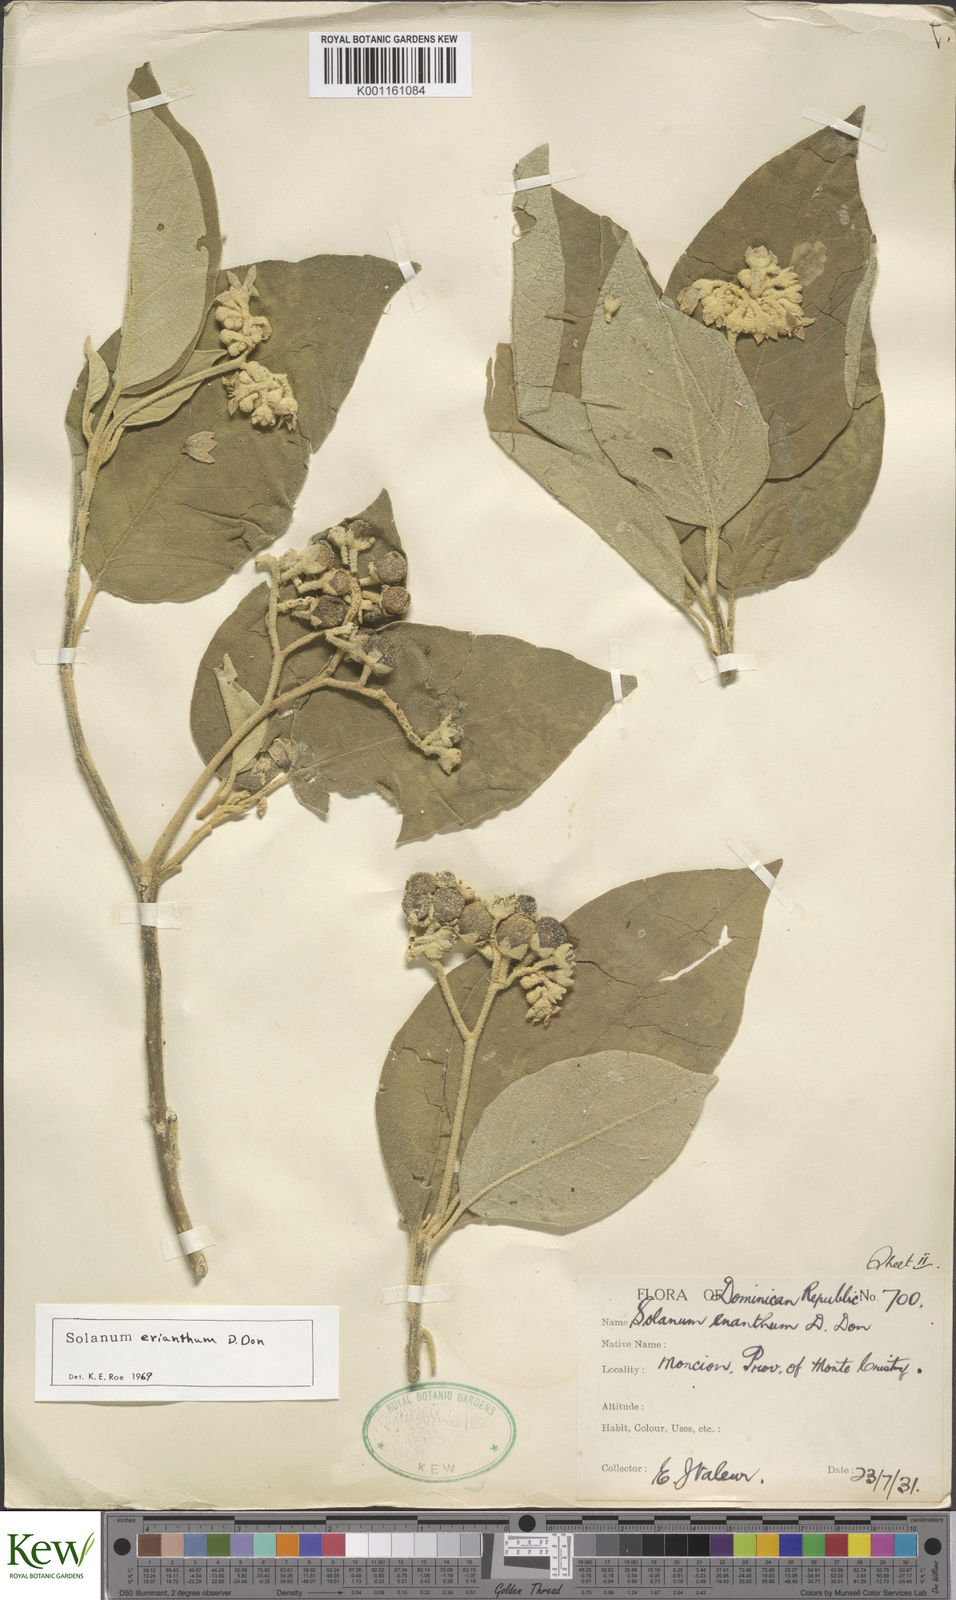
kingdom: Plantae
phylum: Tracheophyta
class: Magnoliopsida
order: Solanales
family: Solanaceae
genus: Solanum
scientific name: Solanum erianthum
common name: Tobacco-tree
